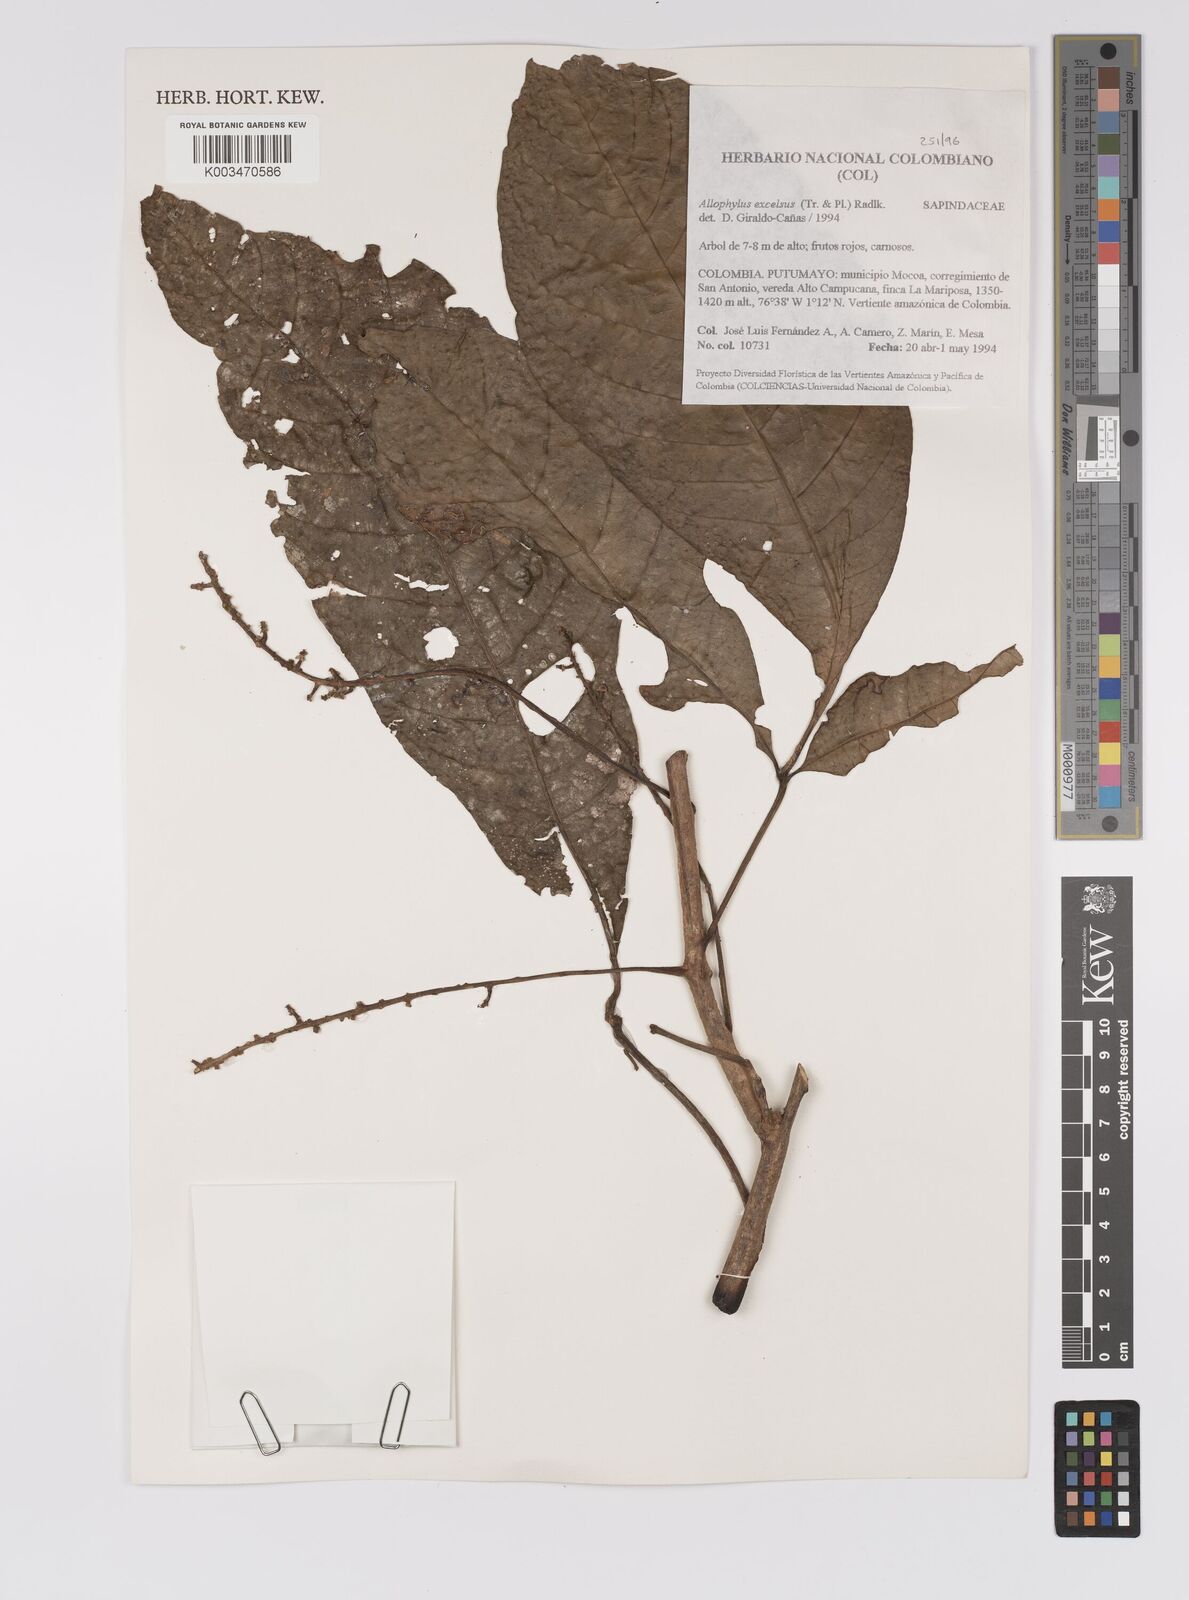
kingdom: Plantae
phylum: Tracheophyta
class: Magnoliopsida
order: Sapindales
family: Sapindaceae
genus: Allophylus
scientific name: Allophylus excelsus
